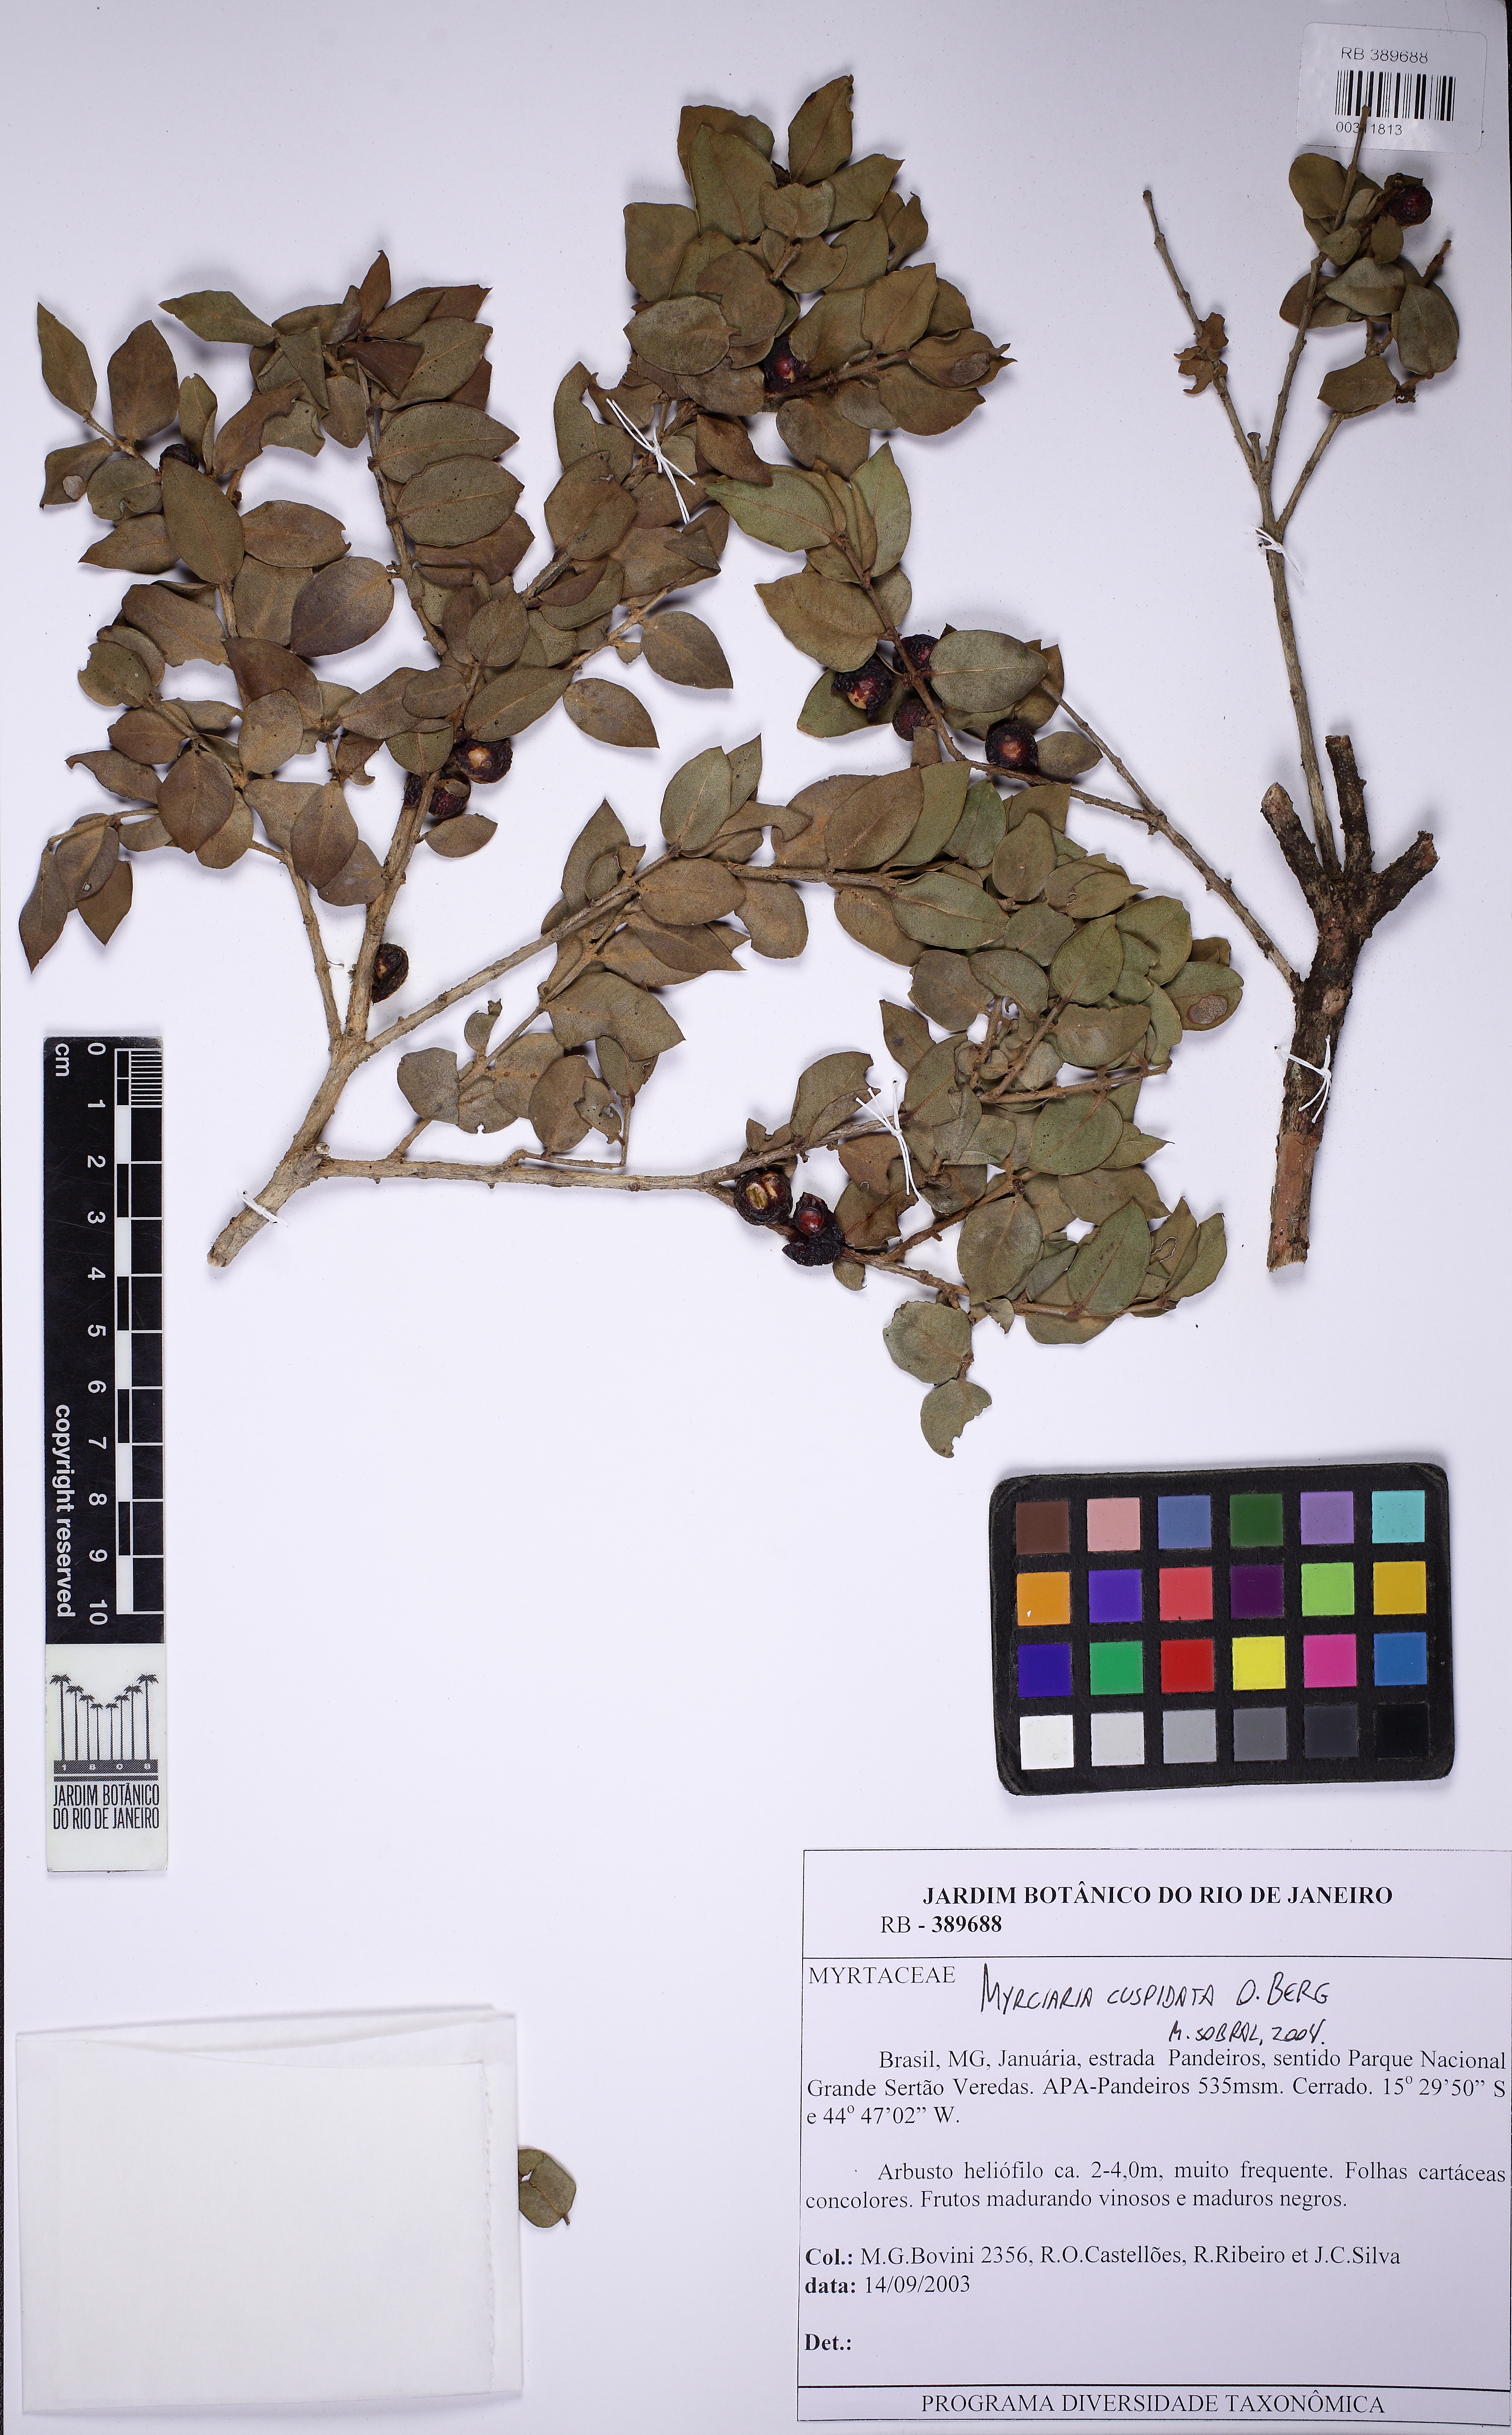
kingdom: Plantae
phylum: Tracheophyta
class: Magnoliopsida
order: Myrtales
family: Myrtaceae
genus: Myrciaria
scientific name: Myrciaria cuspidata
